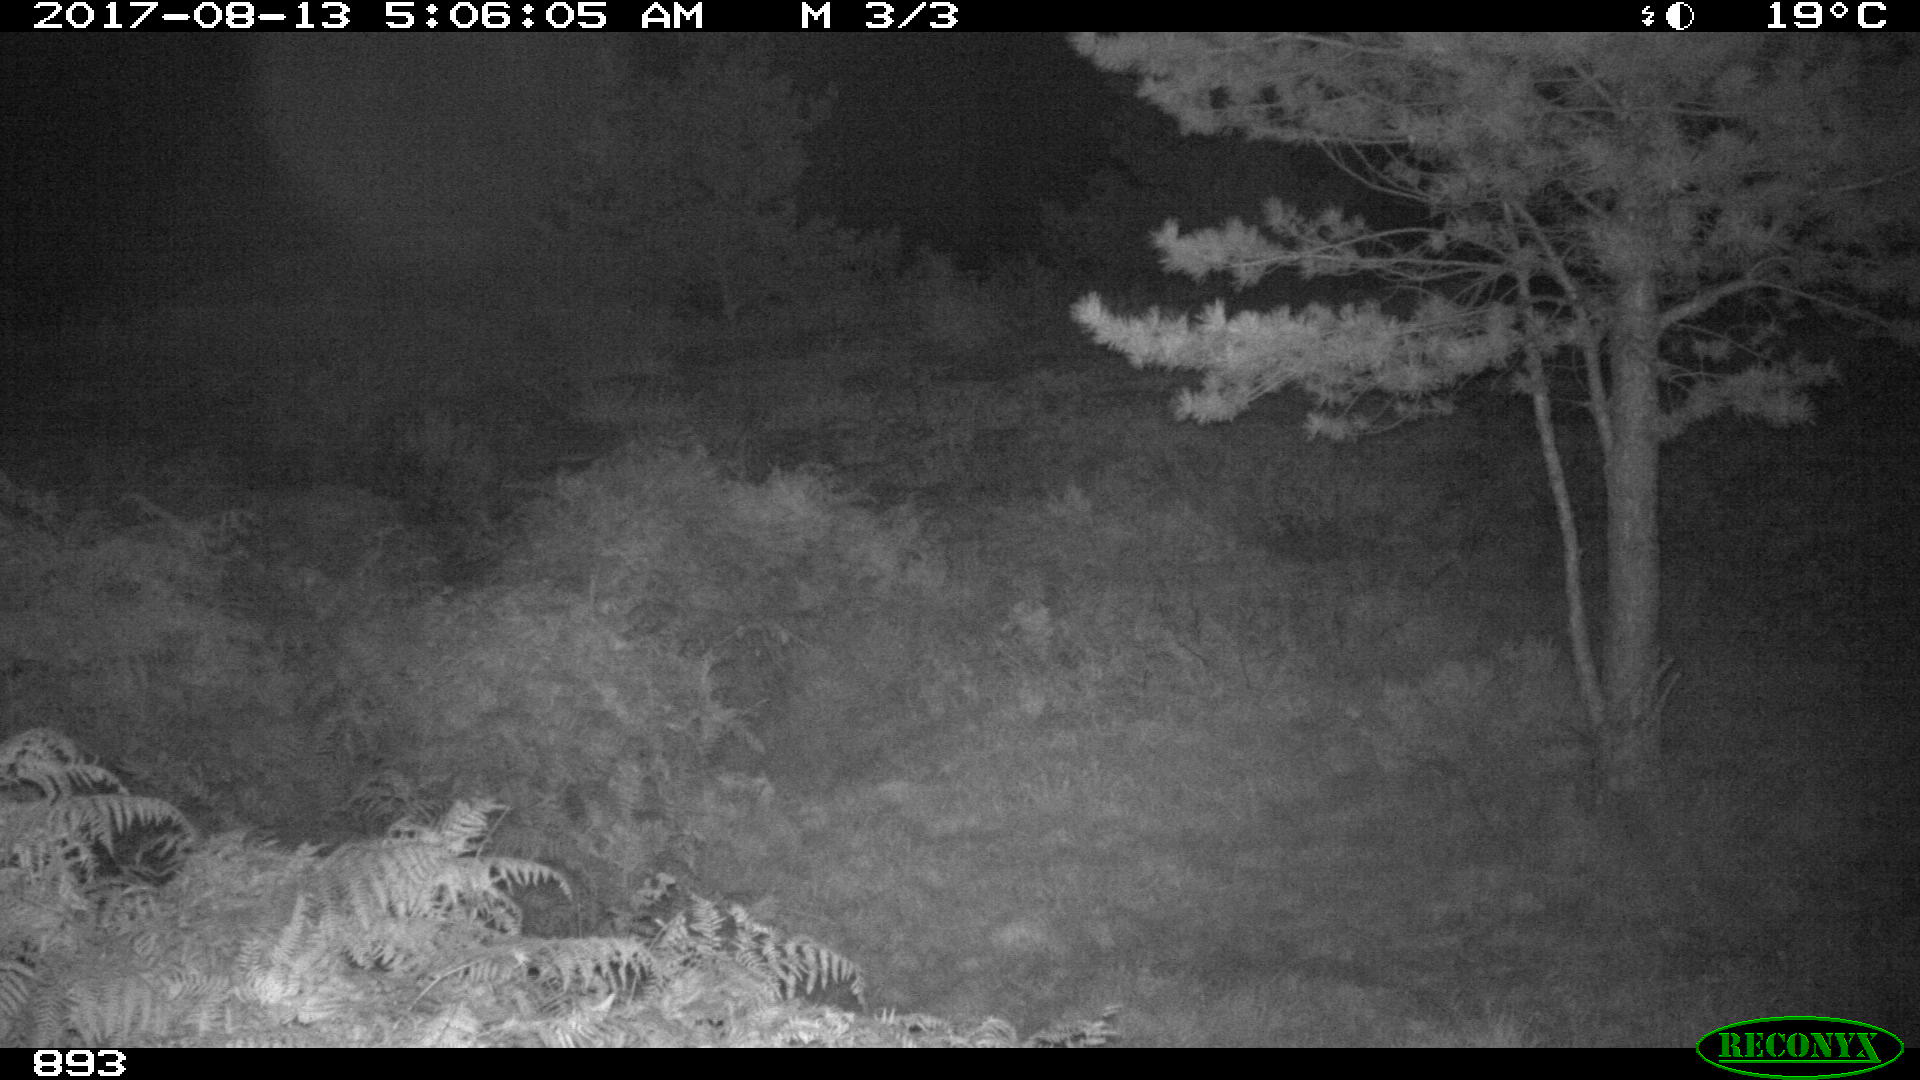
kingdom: Animalia
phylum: Chordata
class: Mammalia
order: Perissodactyla
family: Equidae
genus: Equus
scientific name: Equus caballus
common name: Horse
